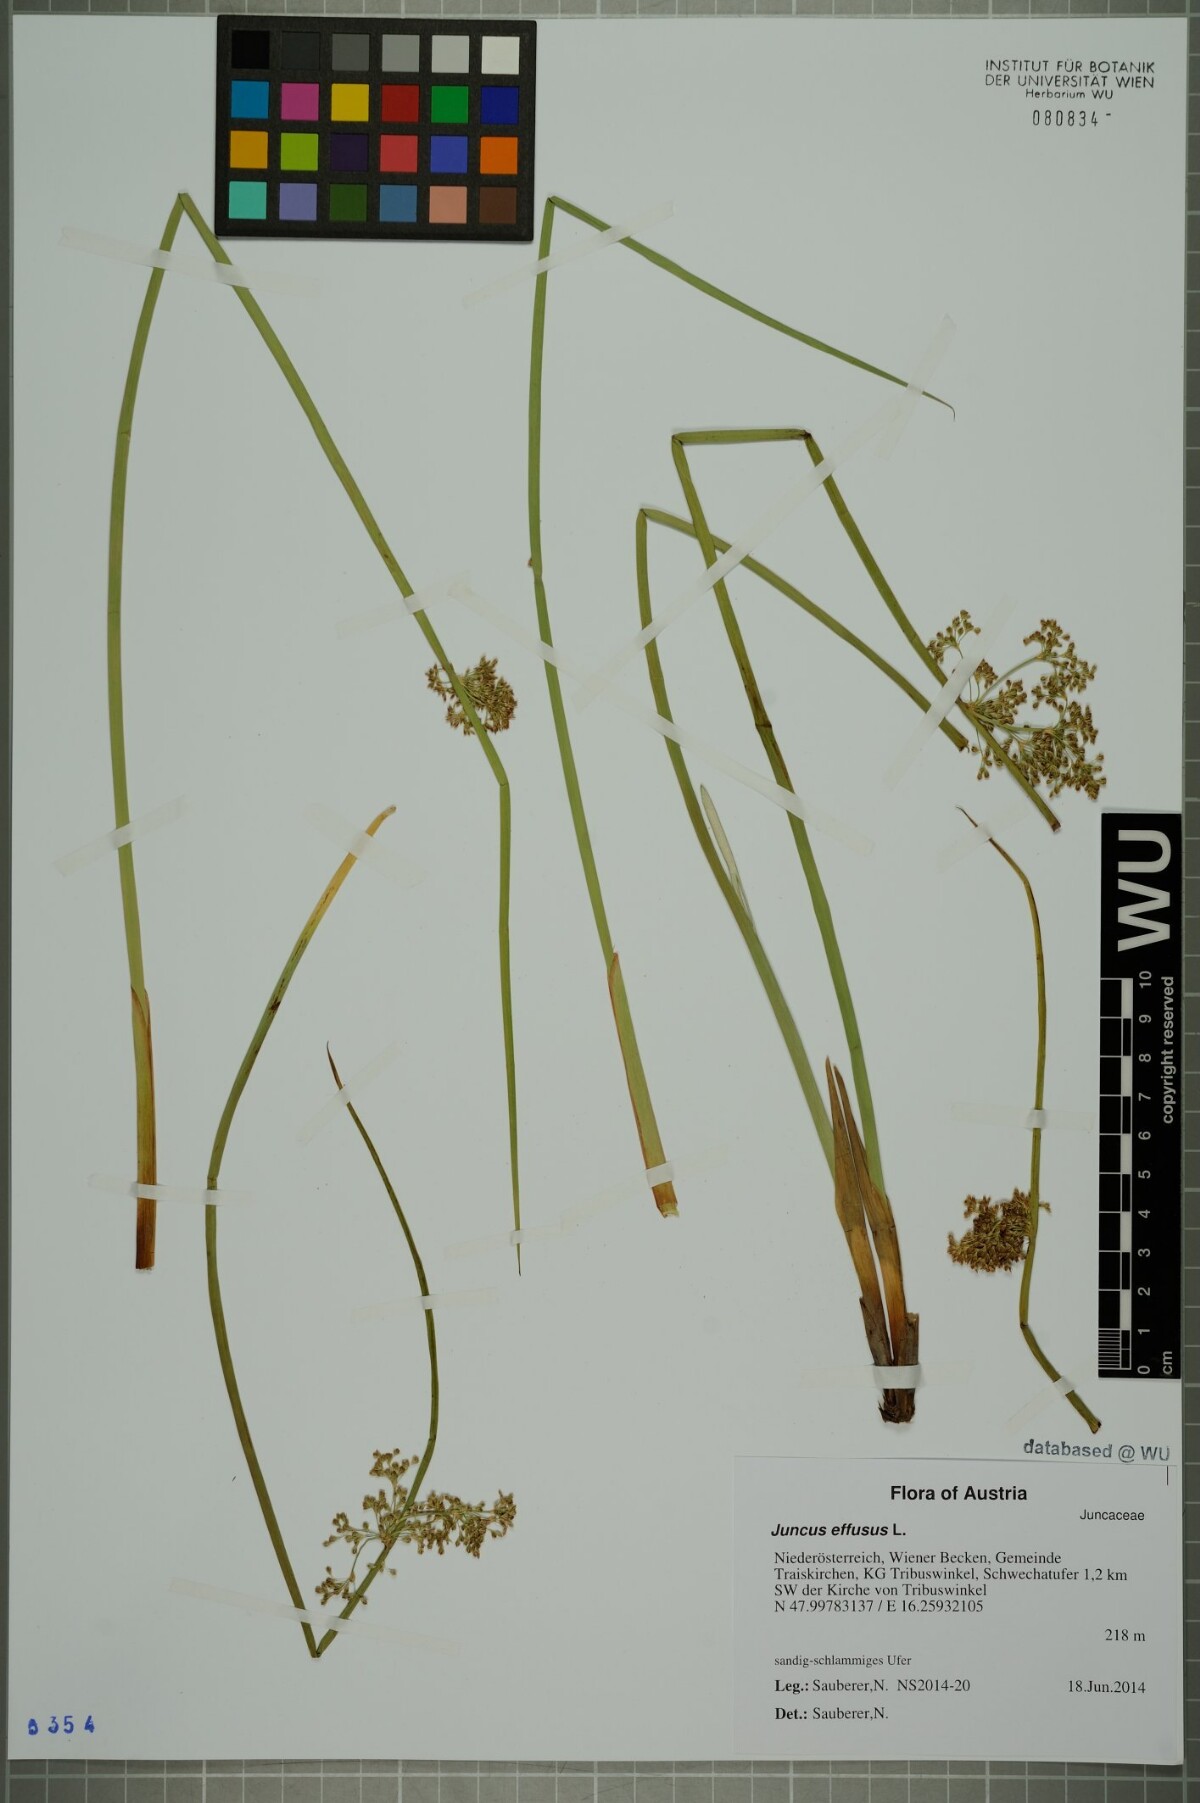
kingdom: Plantae
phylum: Tracheophyta
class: Liliopsida
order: Poales
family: Juncaceae
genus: Juncus
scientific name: Juncus effusus
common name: Soft rush
